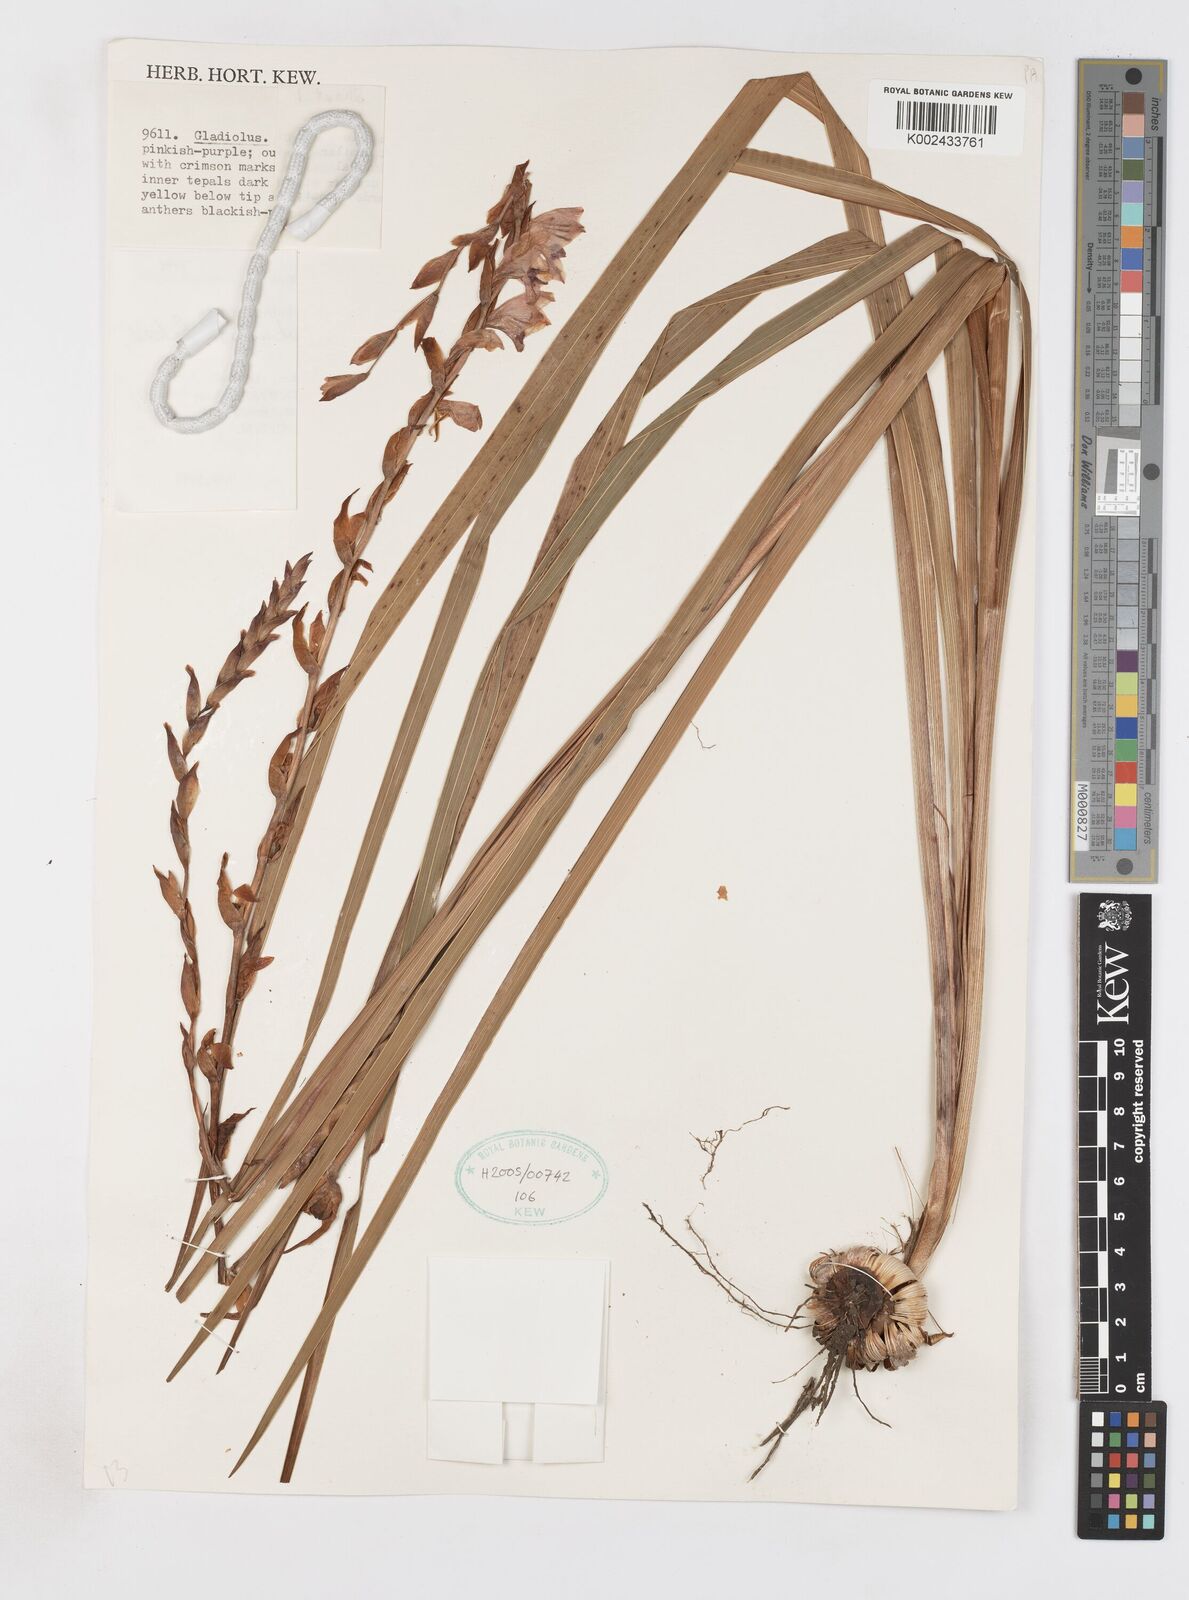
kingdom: Plantae
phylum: Tracheophyta
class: Liliopsida
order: Asparagales
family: Iridaceae
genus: Gladiolus
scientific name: Gladiolus crassifolius
